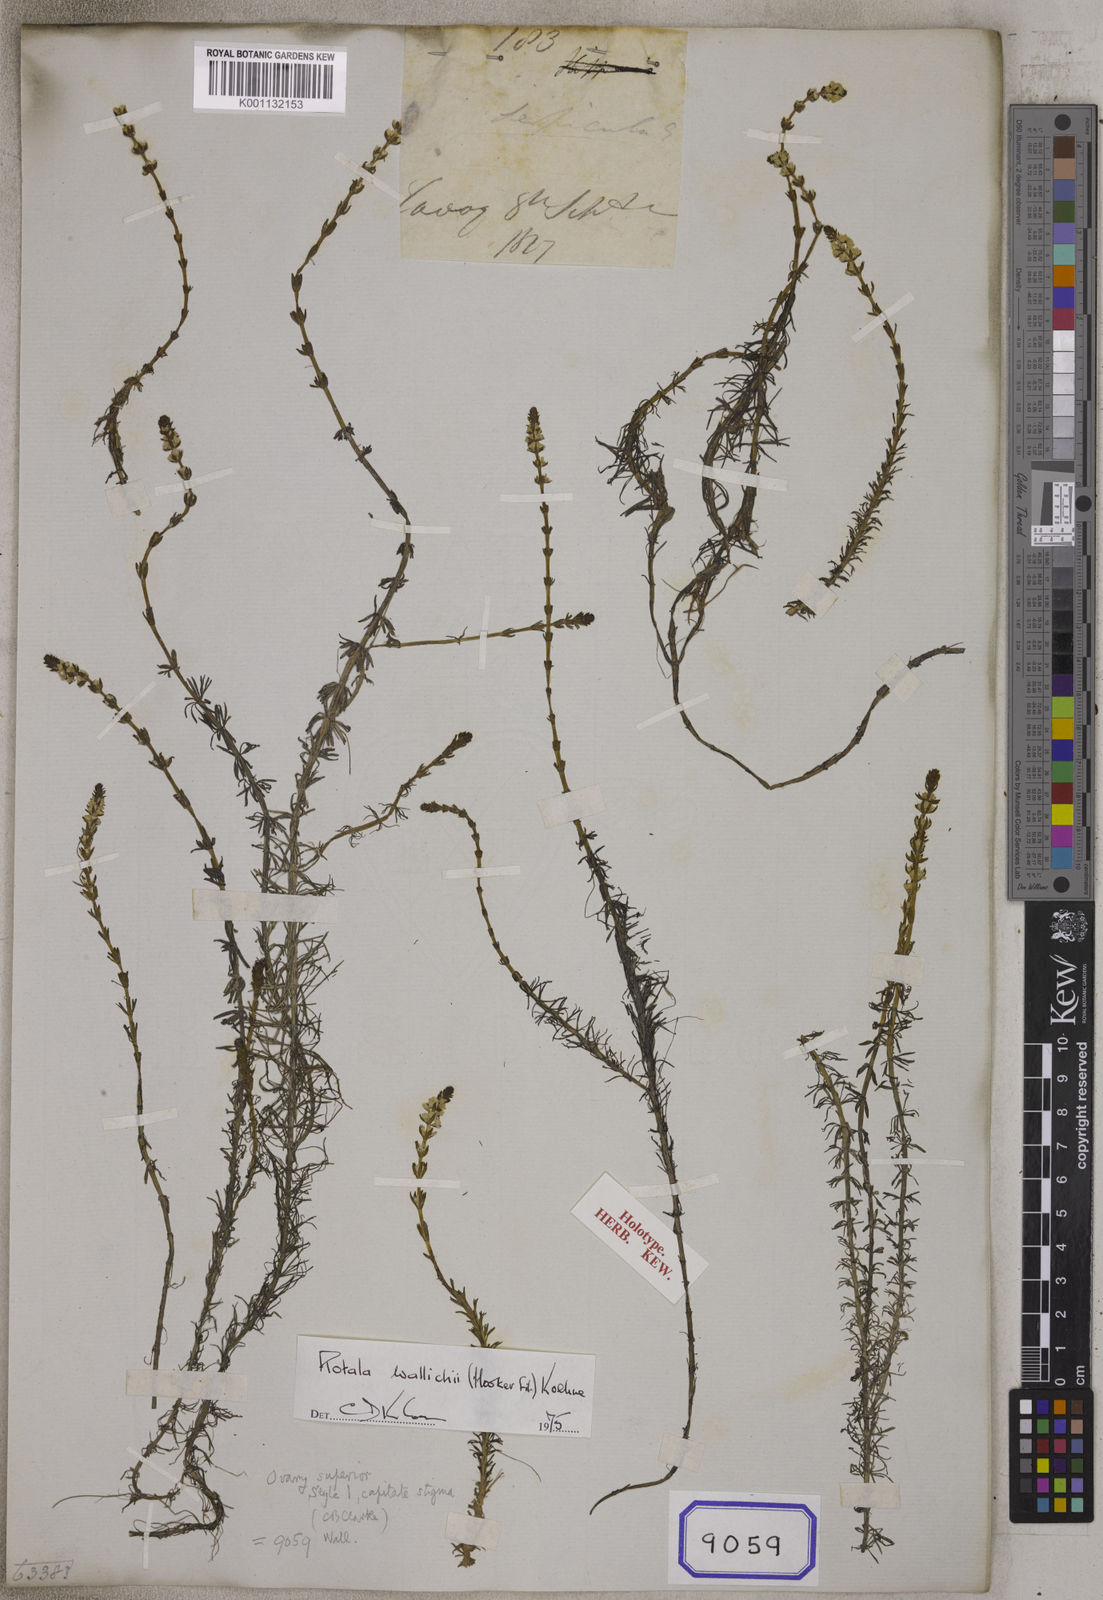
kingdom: Plantae
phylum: Tracheophyta
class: Magnoliopsida
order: Myrtales
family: Lythraceae
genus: Rotala
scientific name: Rotala
